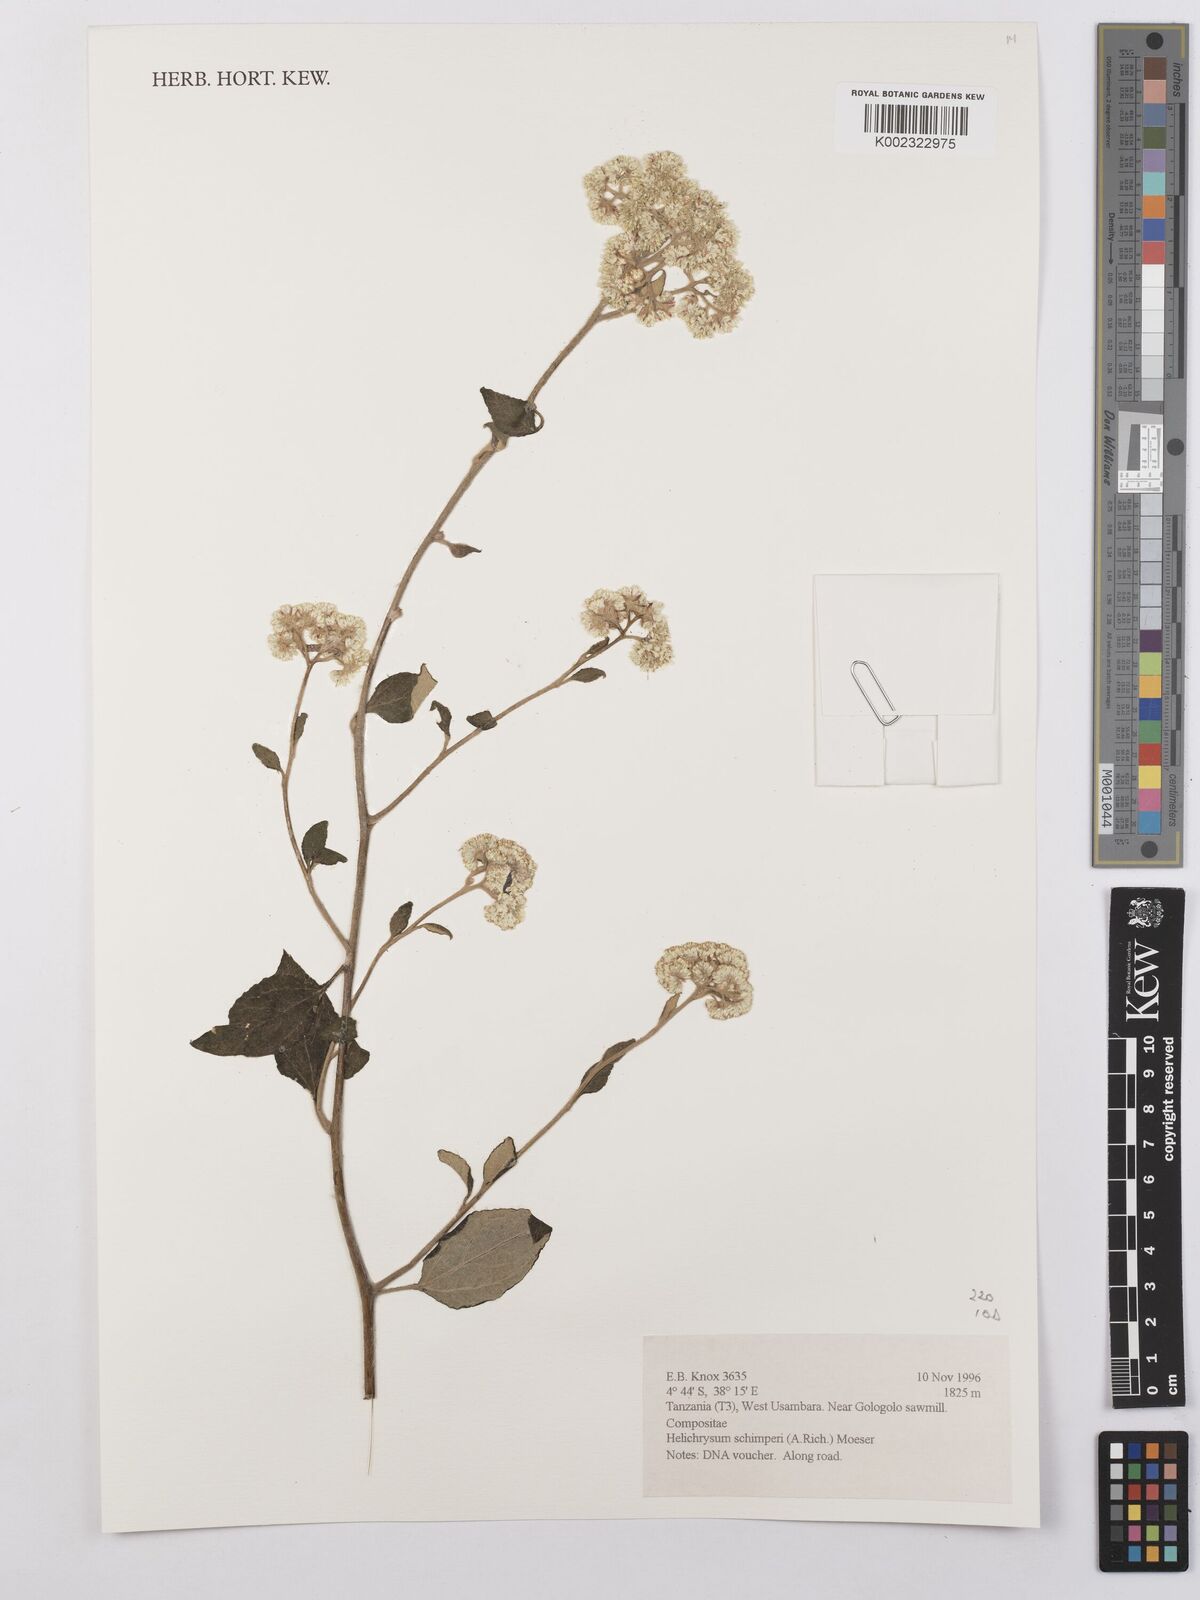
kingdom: Plantae
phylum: Tracheophyta
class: Magnoliopsida
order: Asterales
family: Asteraceae
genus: Helichrysum
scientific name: Helichrysum schimperi
